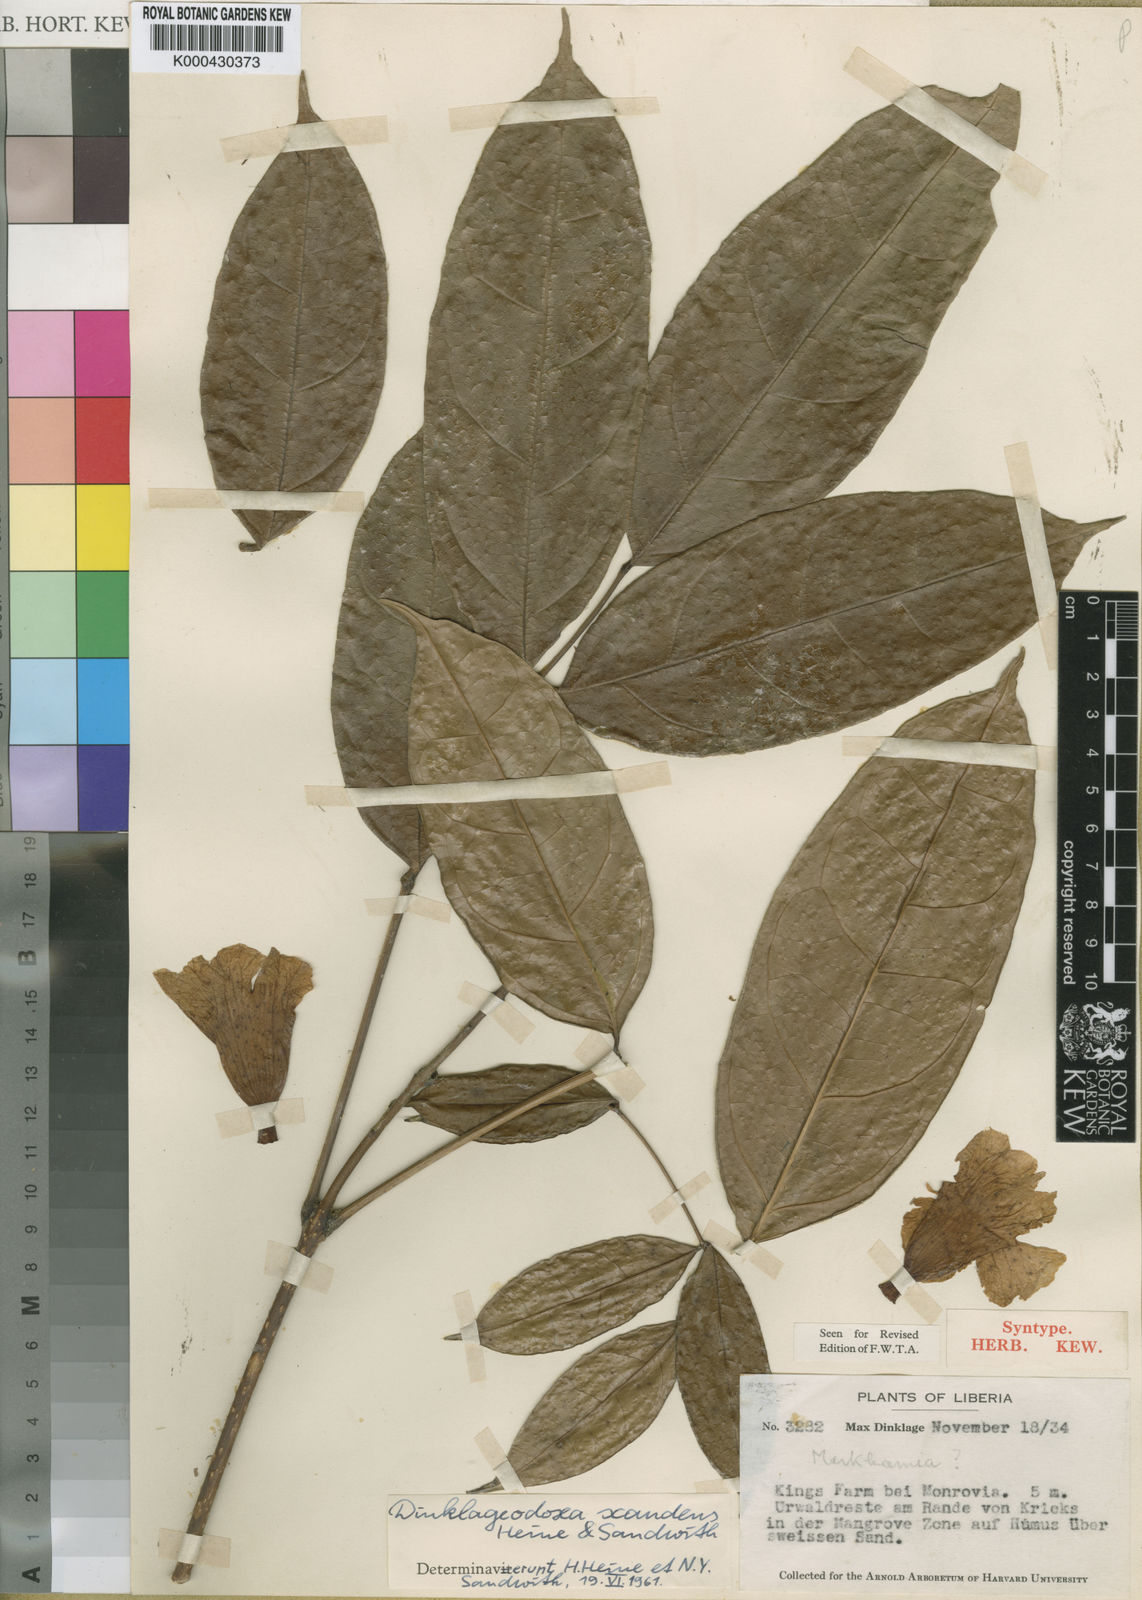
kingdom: Plantae
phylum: Tracheophyta
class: Magnoliopsida
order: Lamiales
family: Bignoniaceae
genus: Dinklageodoxa
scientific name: Dinklageodoxa scandens
